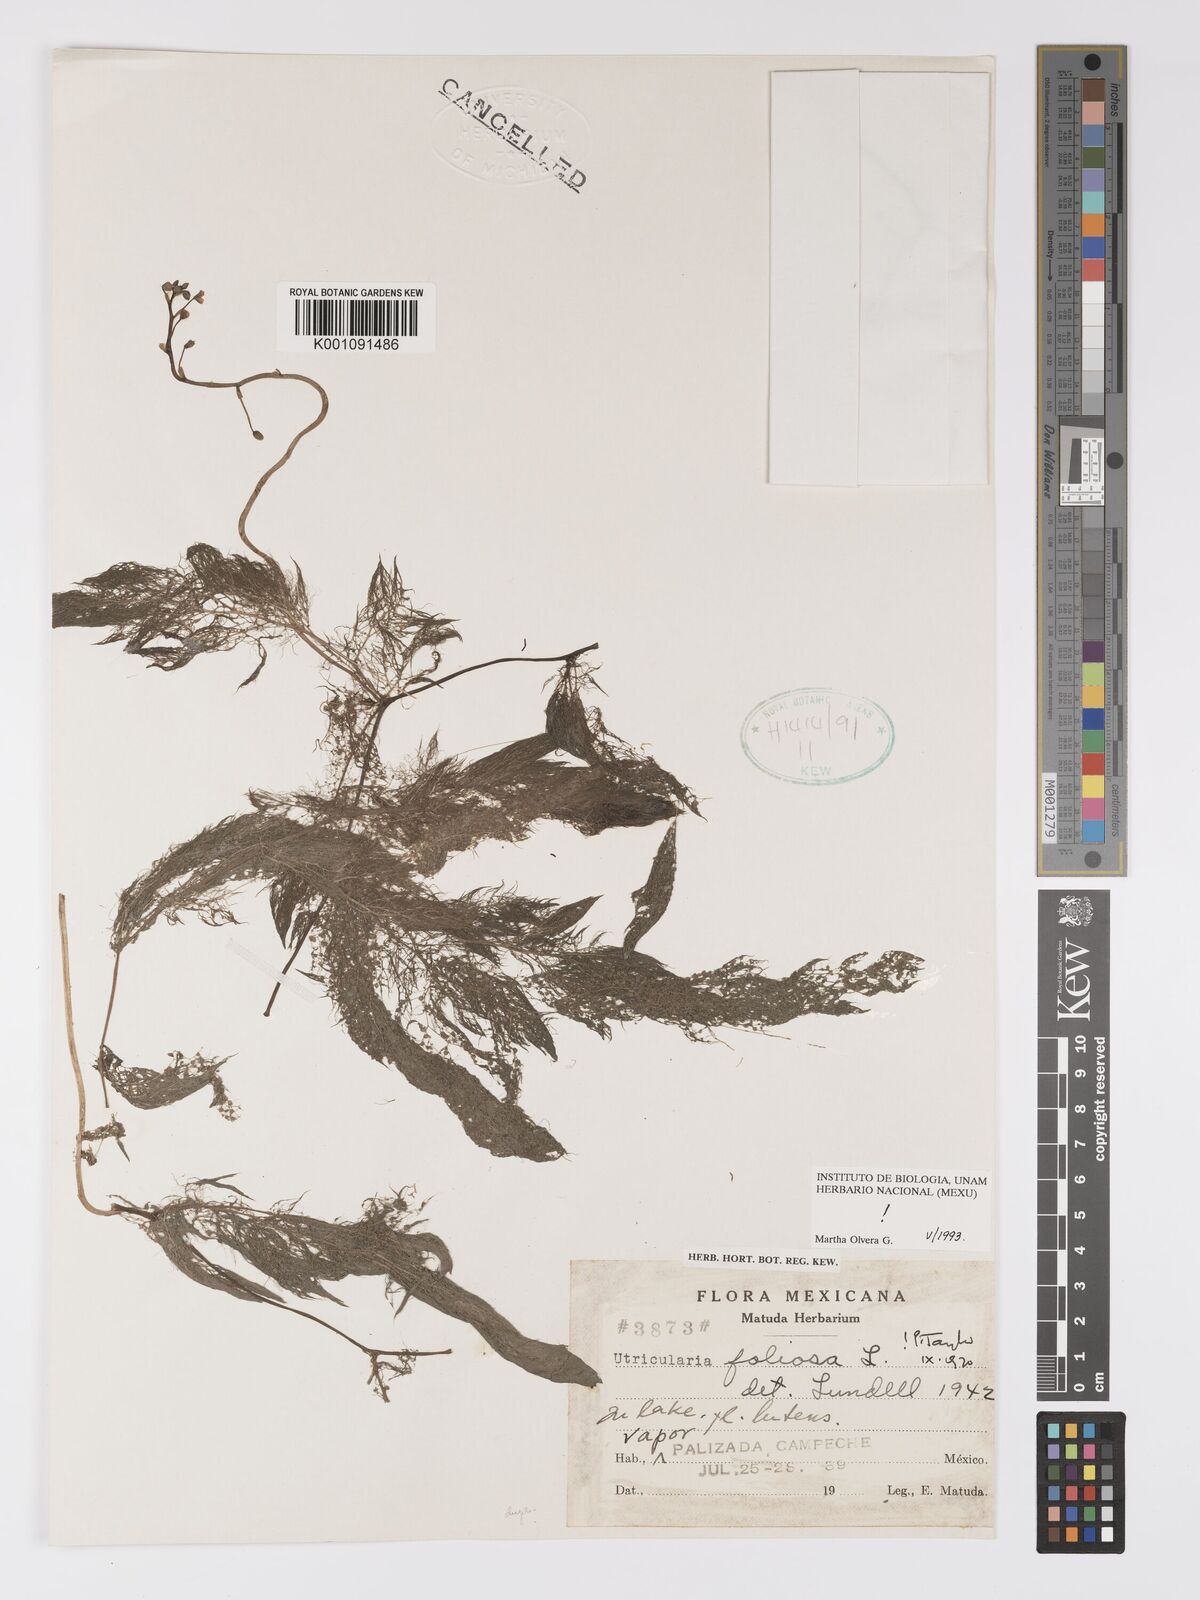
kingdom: Plantae
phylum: Tracheophyta
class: Magnoliopsida
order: Lamiales
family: Lentibulariaceae
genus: Utricularia
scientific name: Utricularia foliosa
